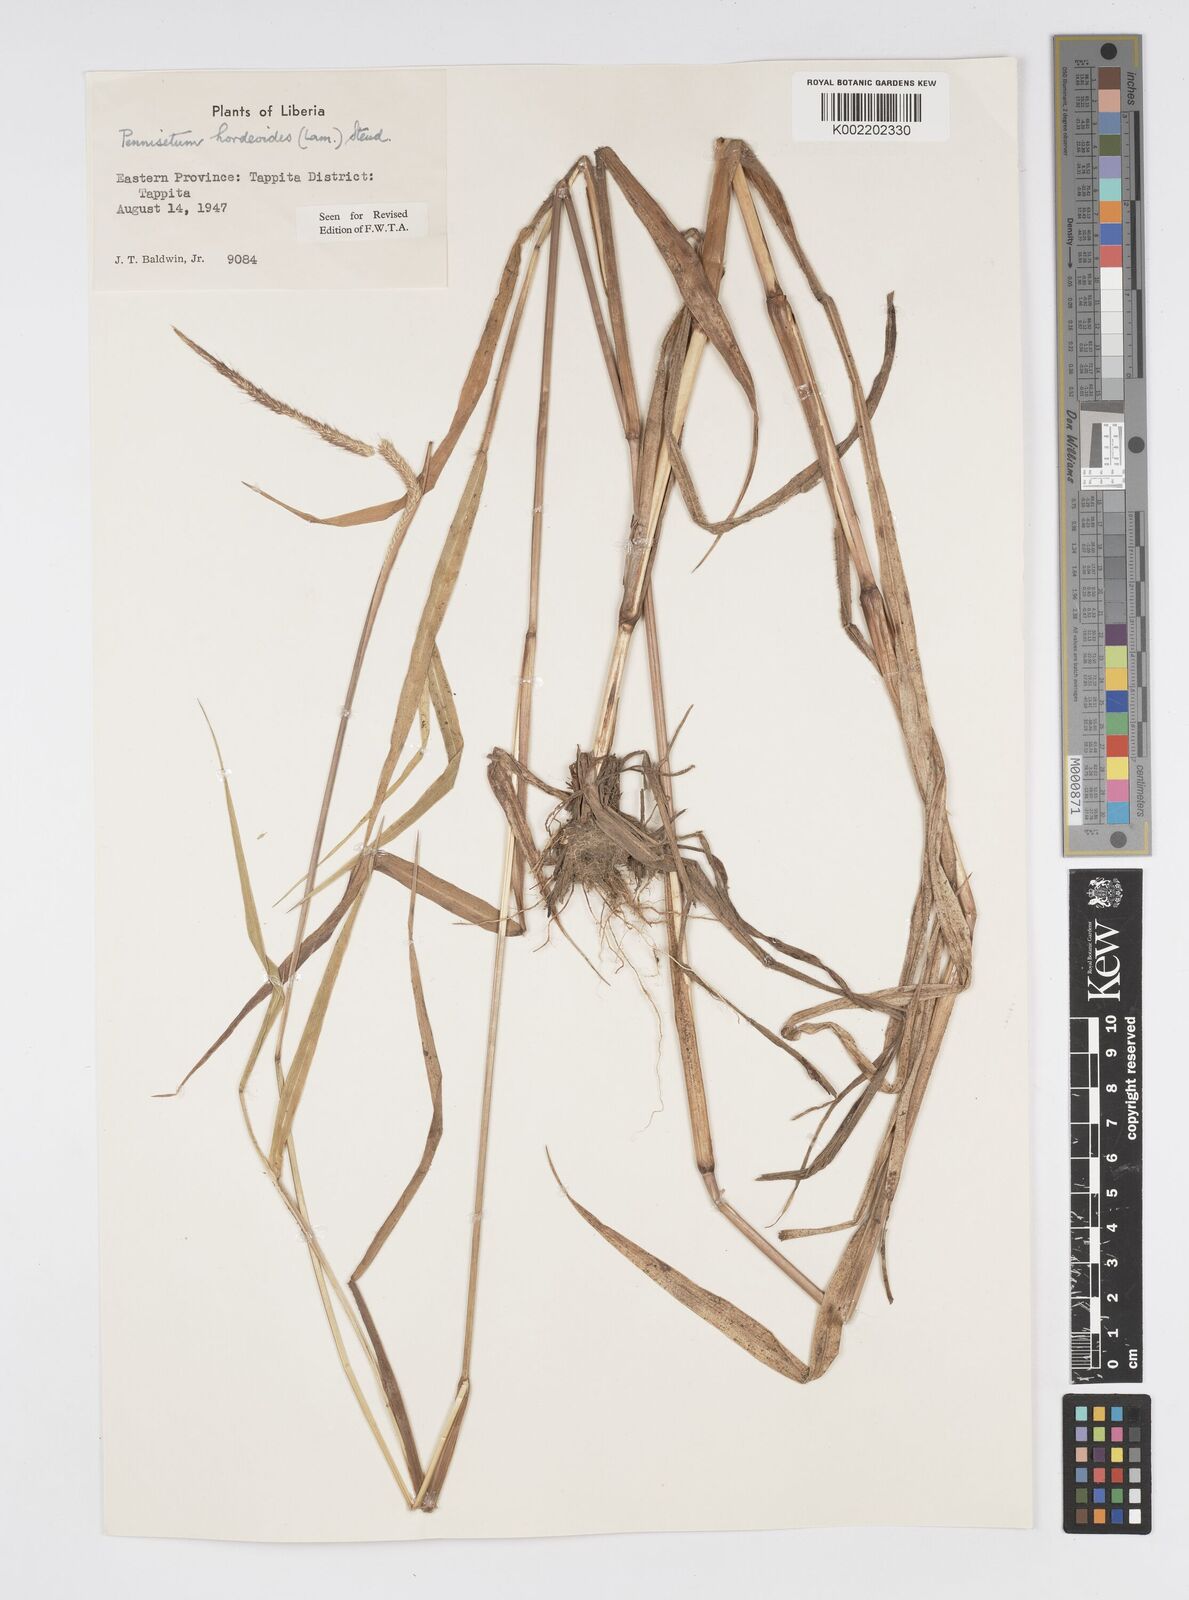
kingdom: Plantae
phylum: Tracheophyta
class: Liliopsida
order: Poales
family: Poaceae
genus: Cenchrus
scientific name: Cenchrus hordeoides
